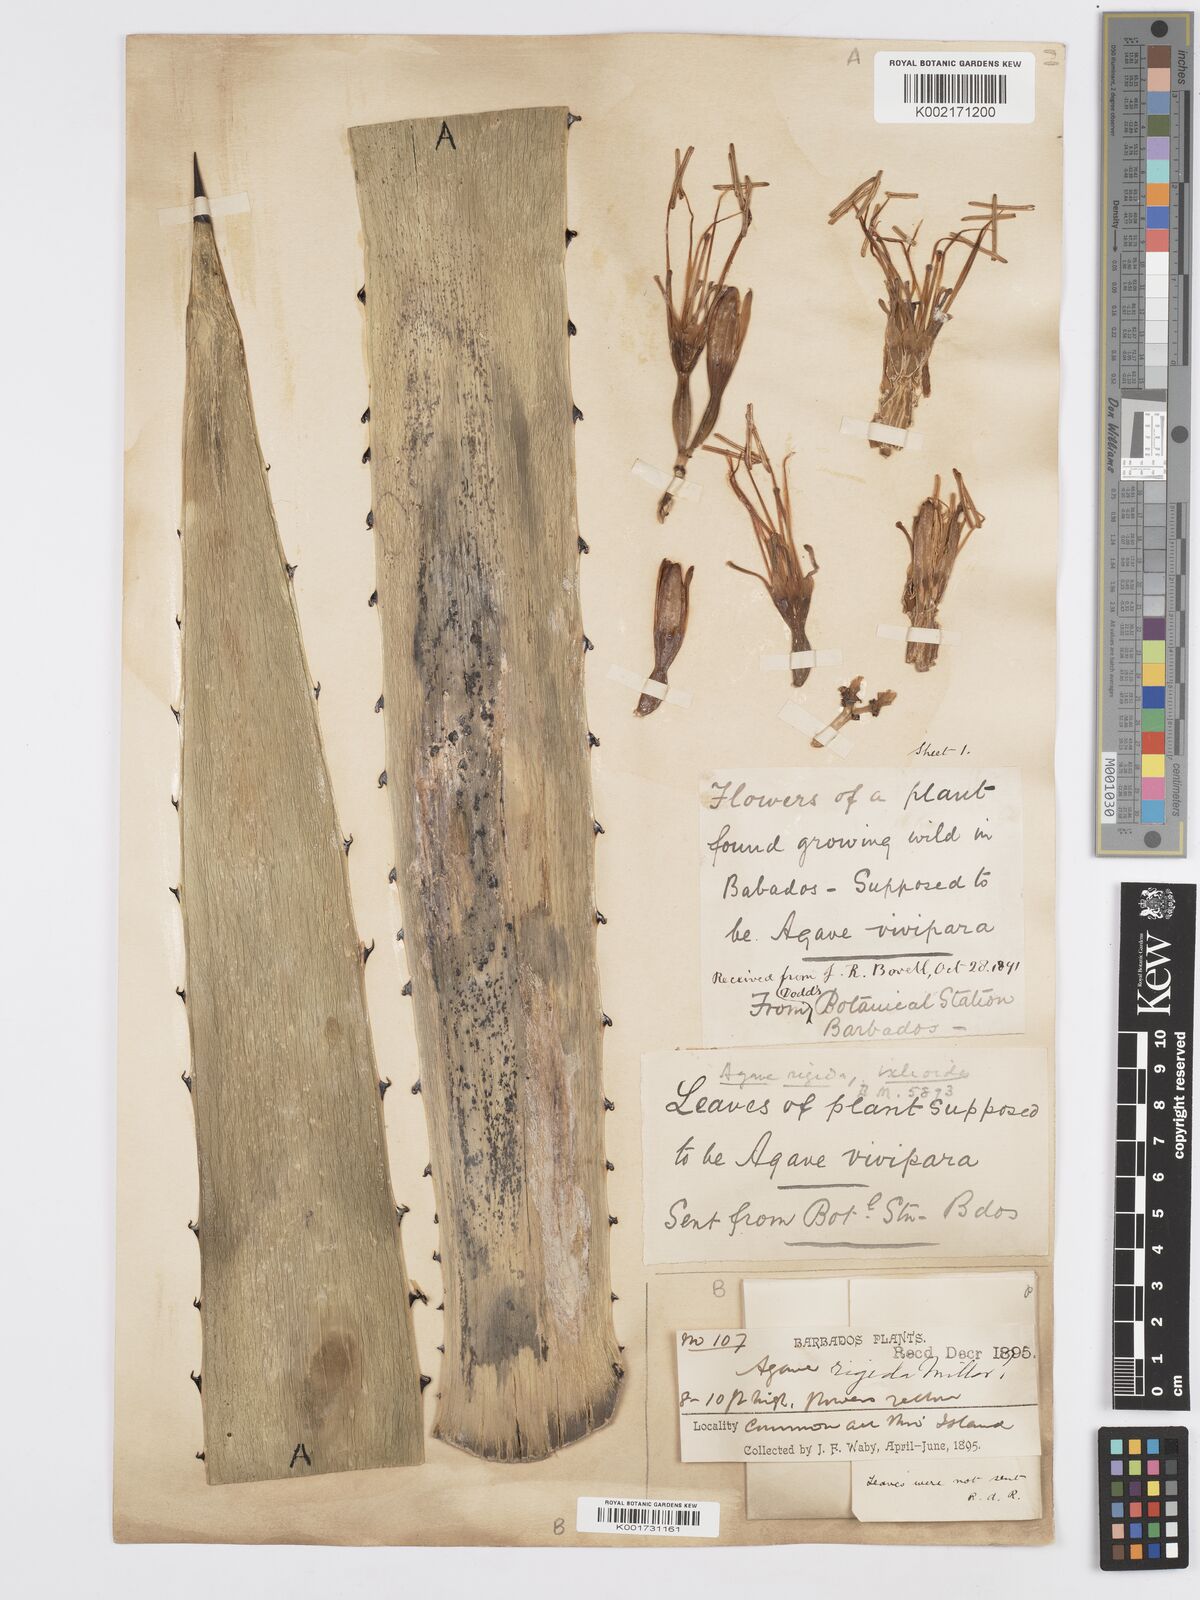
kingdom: Plantae
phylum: Tracheophyta
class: Liliopsida
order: Asparagales
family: Asparagaceae
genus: Agave
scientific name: Agave angustifolia
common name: Mescal agave
